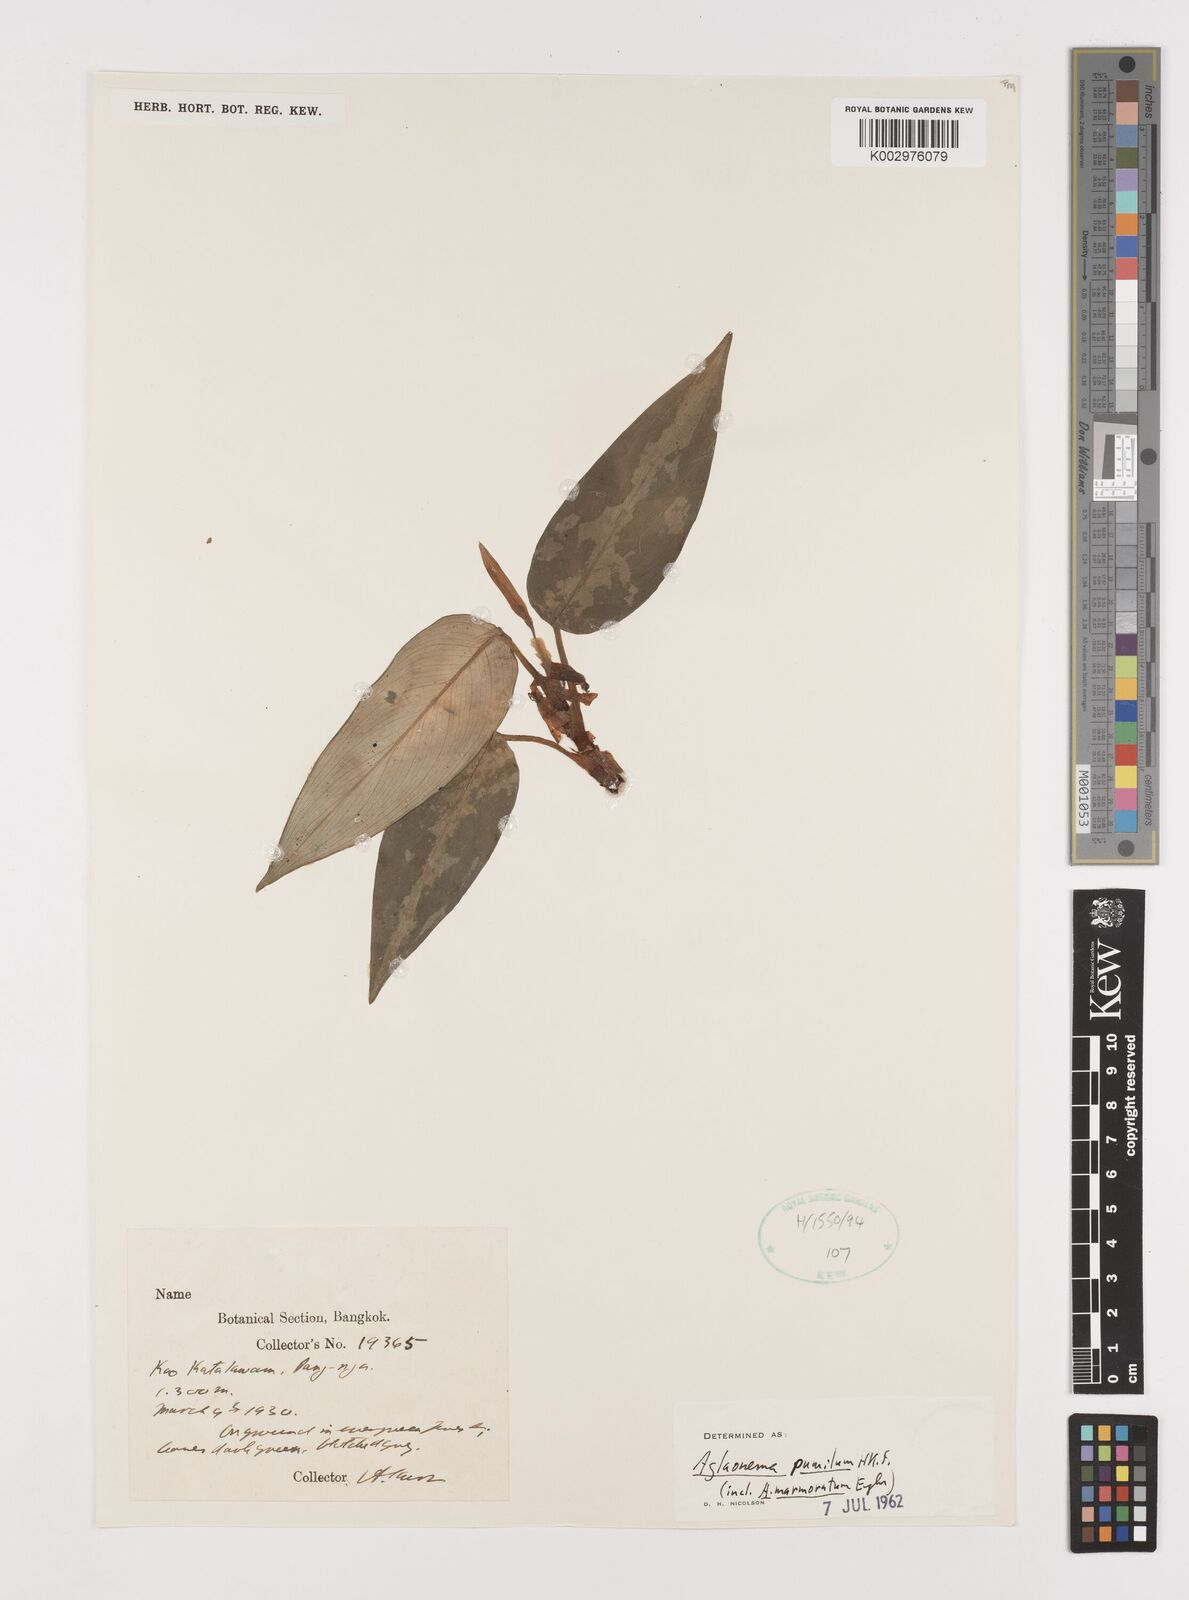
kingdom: Plantae
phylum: Tracheophyta
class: Liliopsida
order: Alismatales
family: Araceae
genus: Aglaonema
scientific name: Aglaonema pumilum
